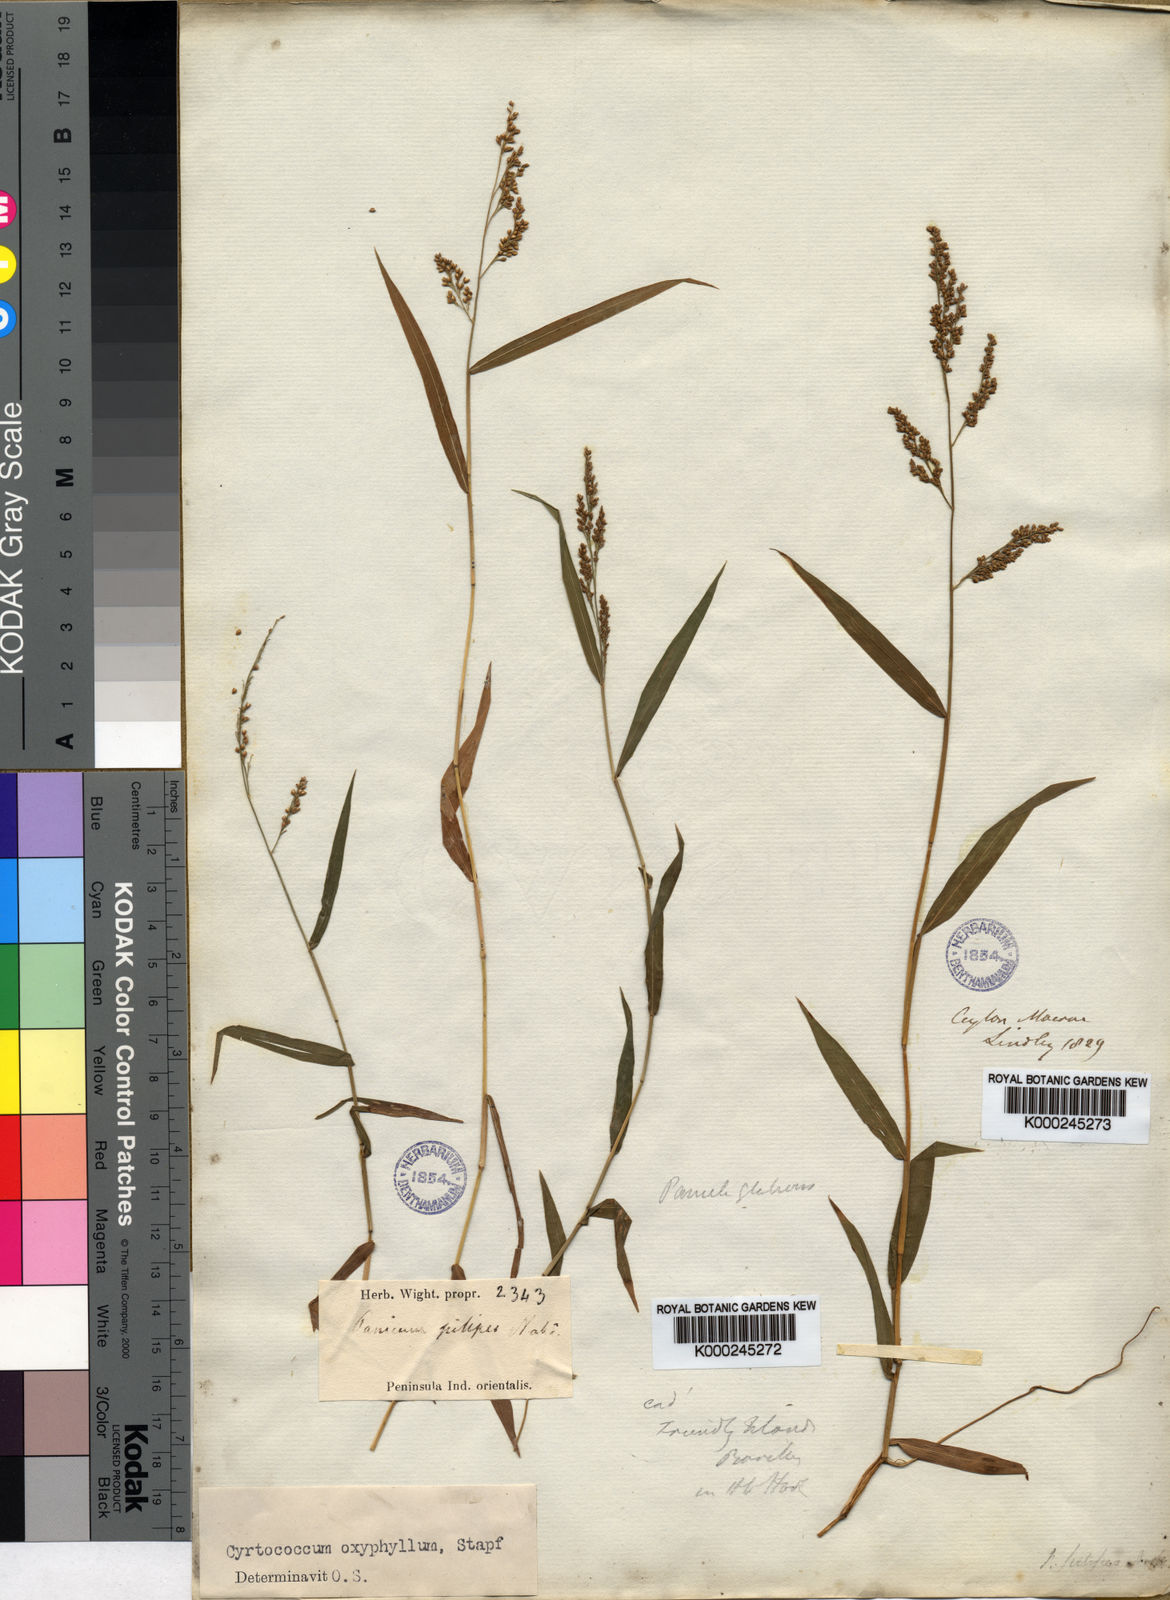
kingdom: Plantae
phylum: Tracheophyta
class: Liliopsida
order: Poales
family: Poaceae
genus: Cyrtococcum
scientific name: Cyrtococcum oxyphyllum
